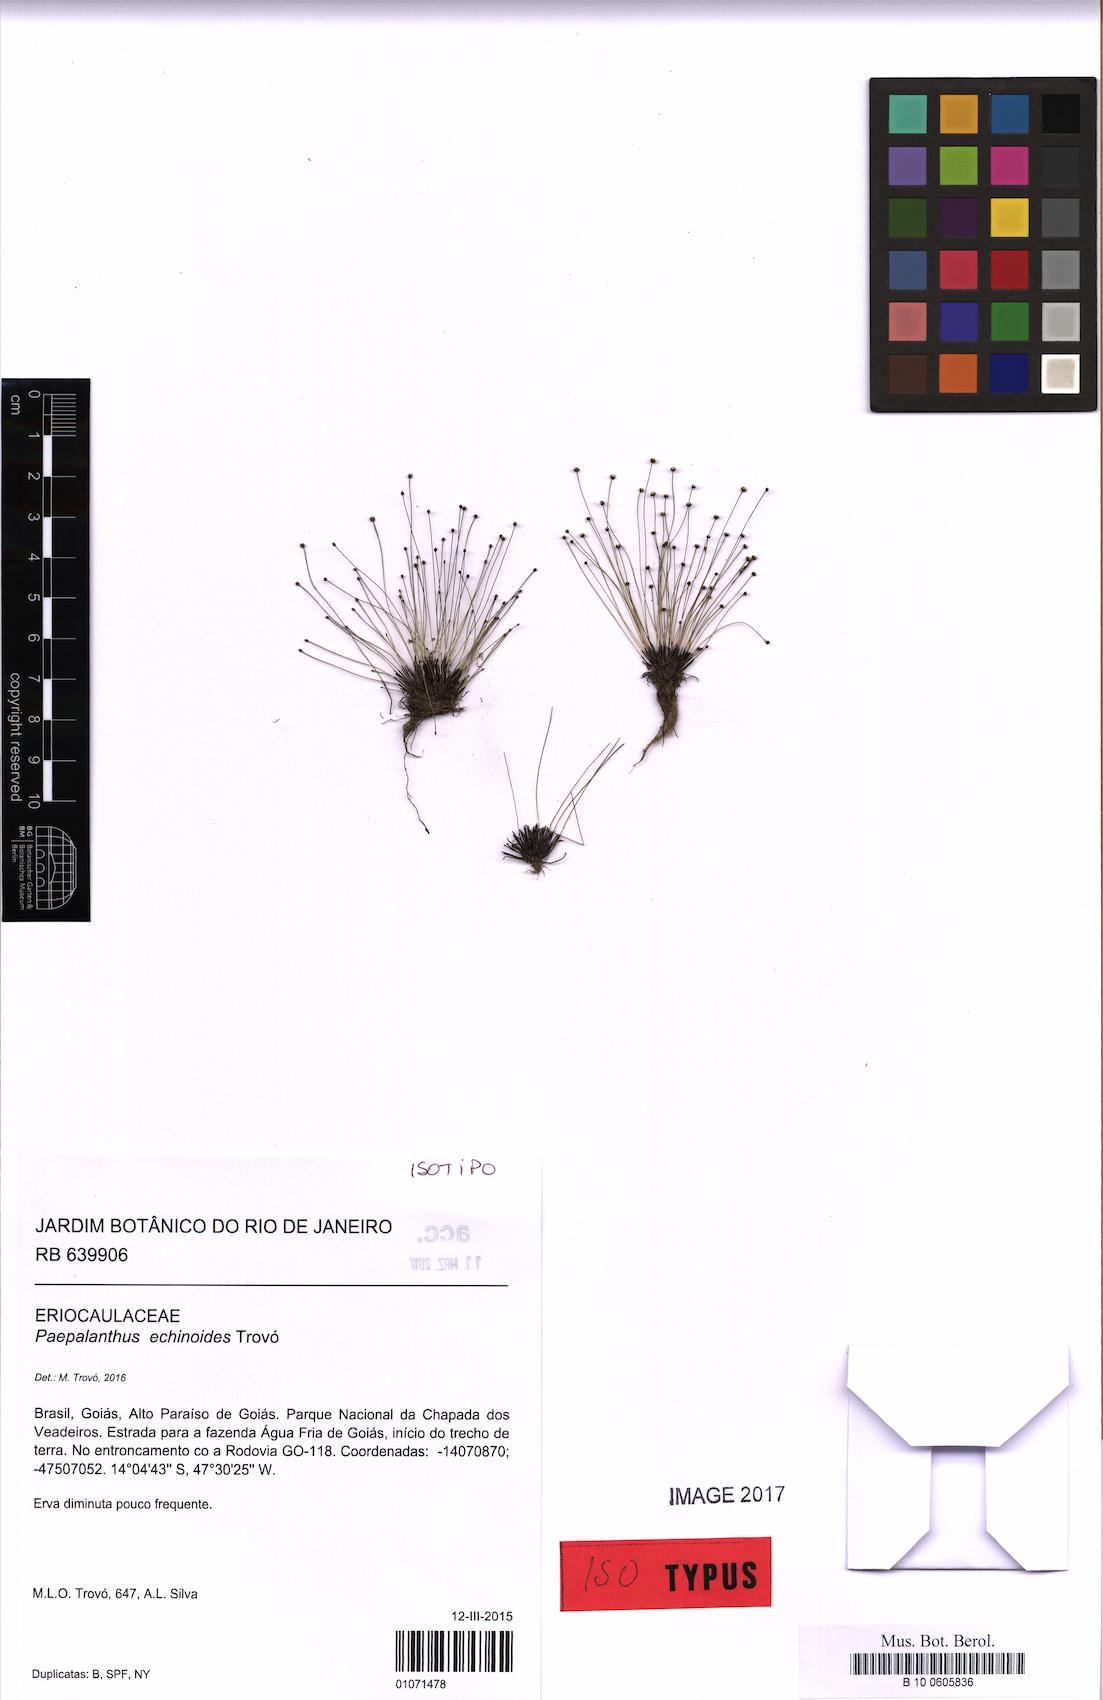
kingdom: Plantae
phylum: Tracheophyta
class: Liliopsida
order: Poales
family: Eriocaulaceae
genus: Paepalanthus
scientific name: Paepalanthus echinoides
